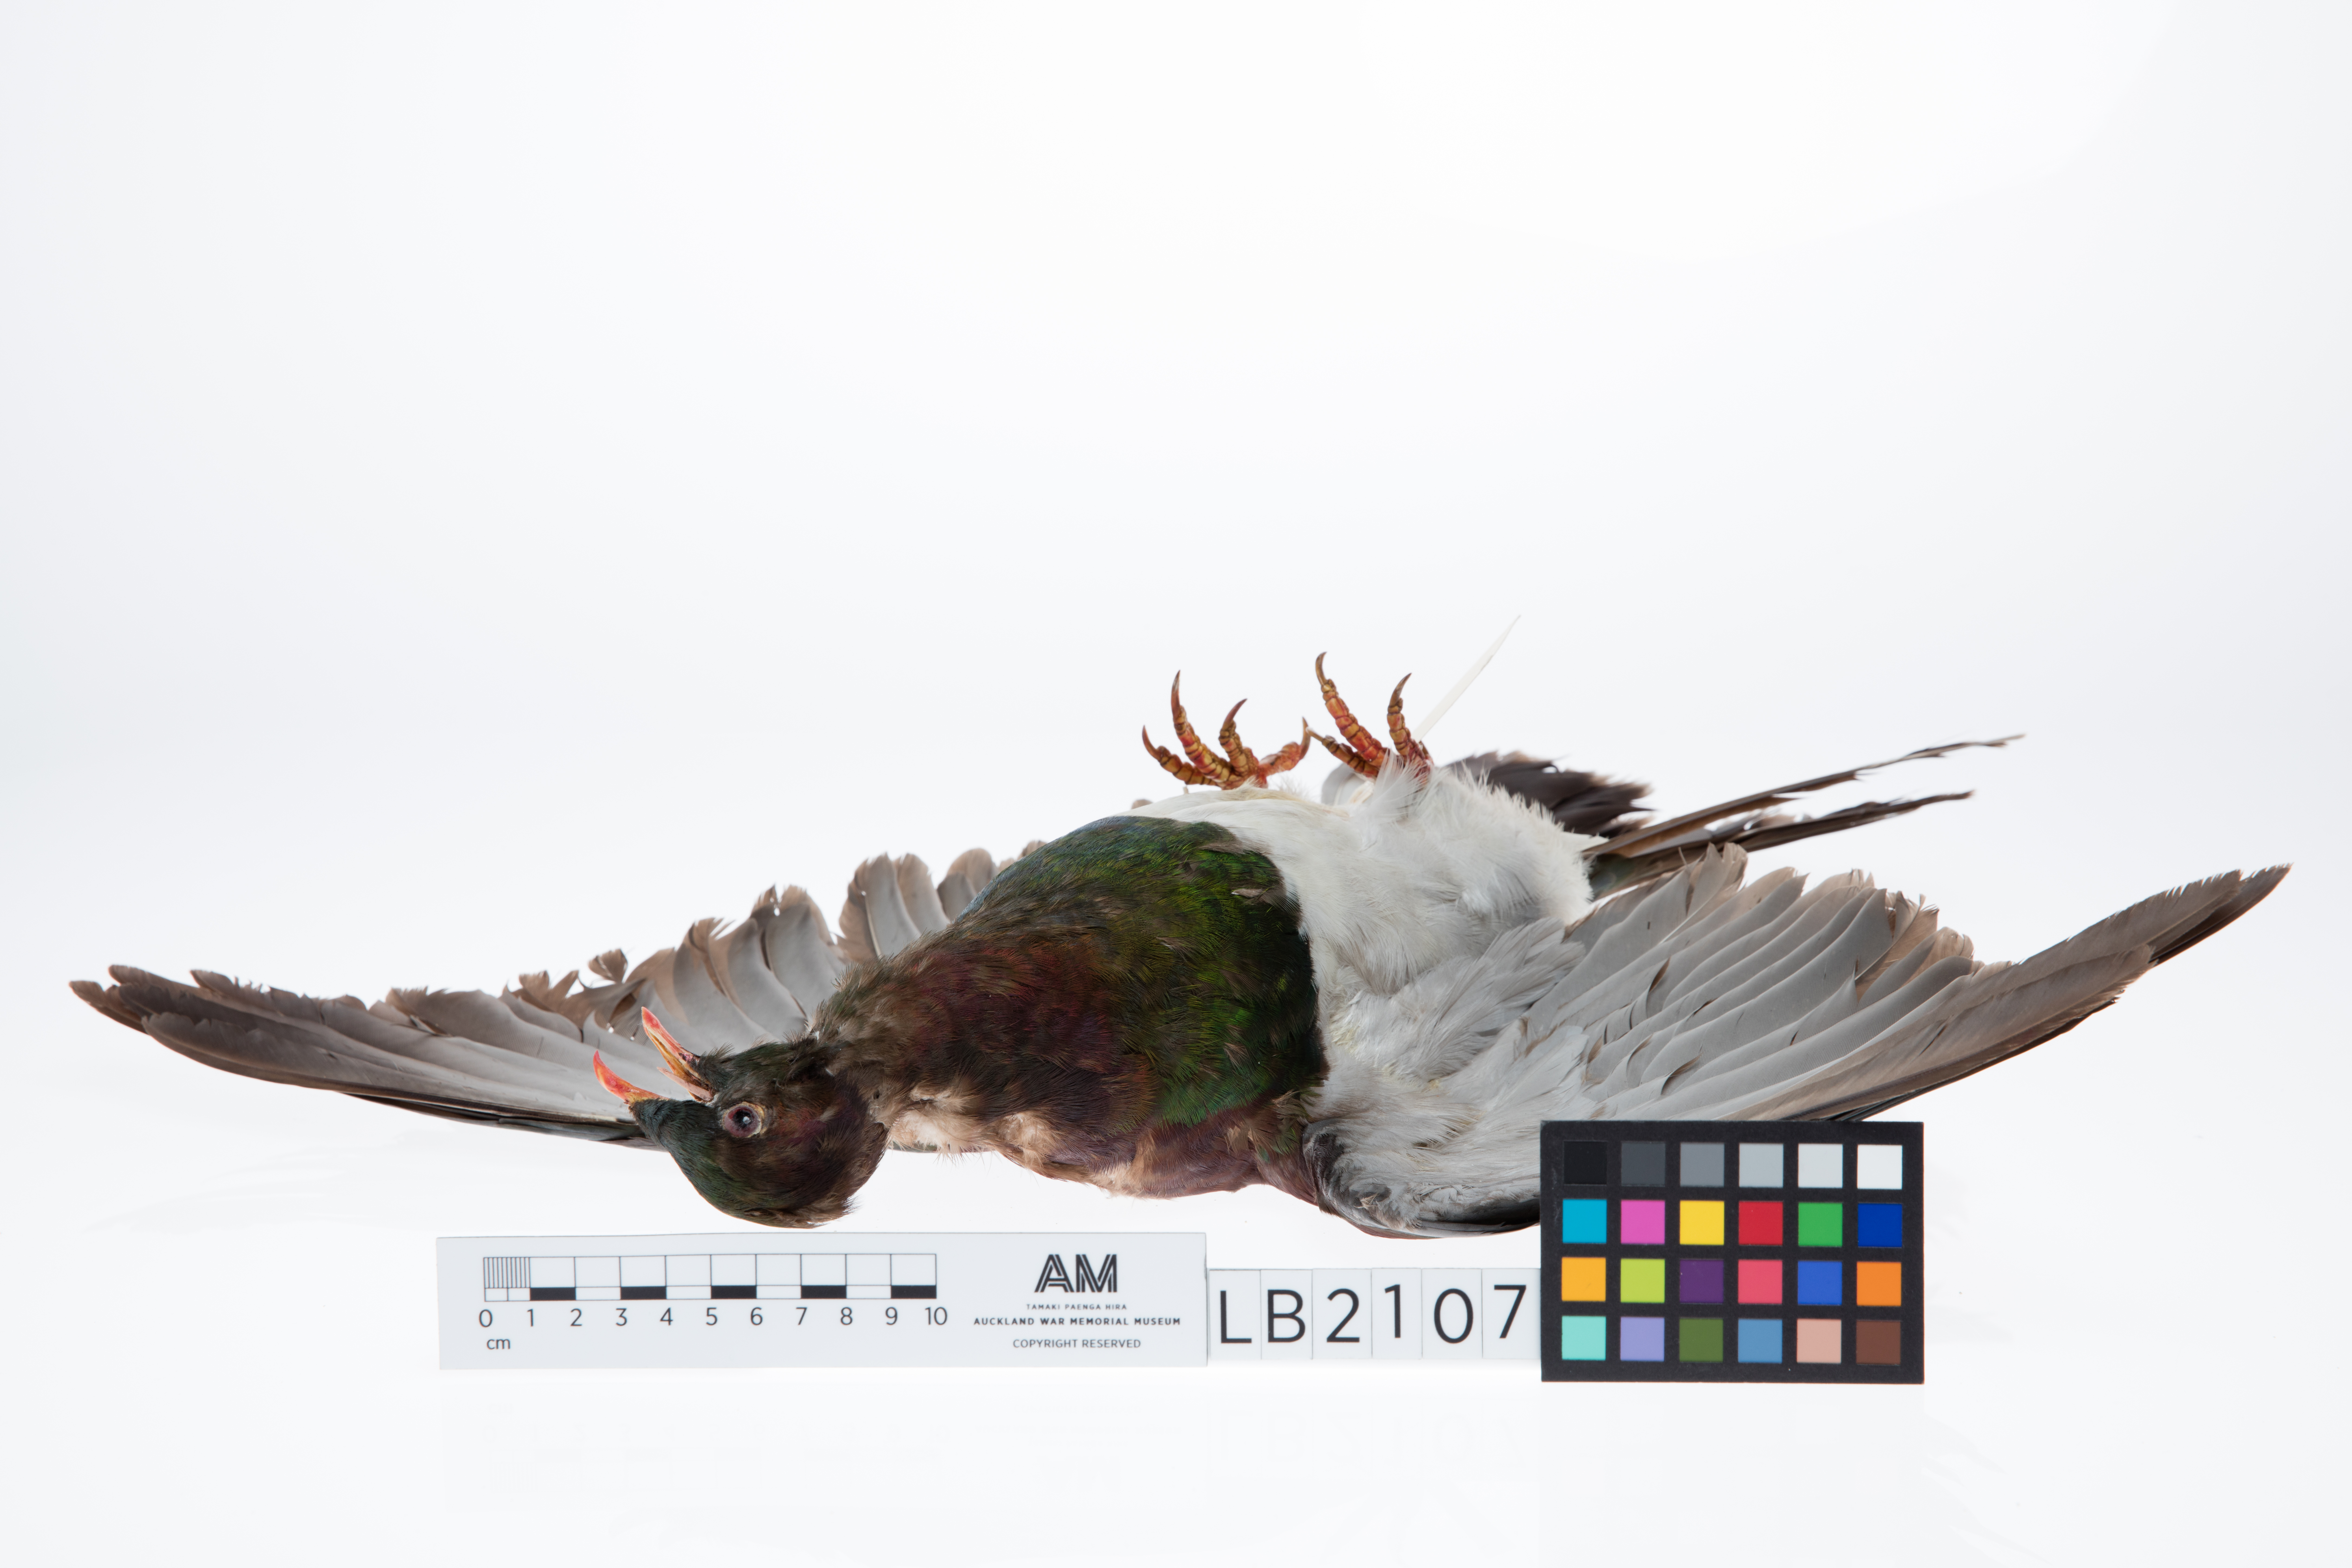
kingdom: Animalia
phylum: Chordata
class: Aves
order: Columbiformes
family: Columbidae
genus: Hemiphaga
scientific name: Hemiphaga novaeseelandiae
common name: New zealand pigeon
